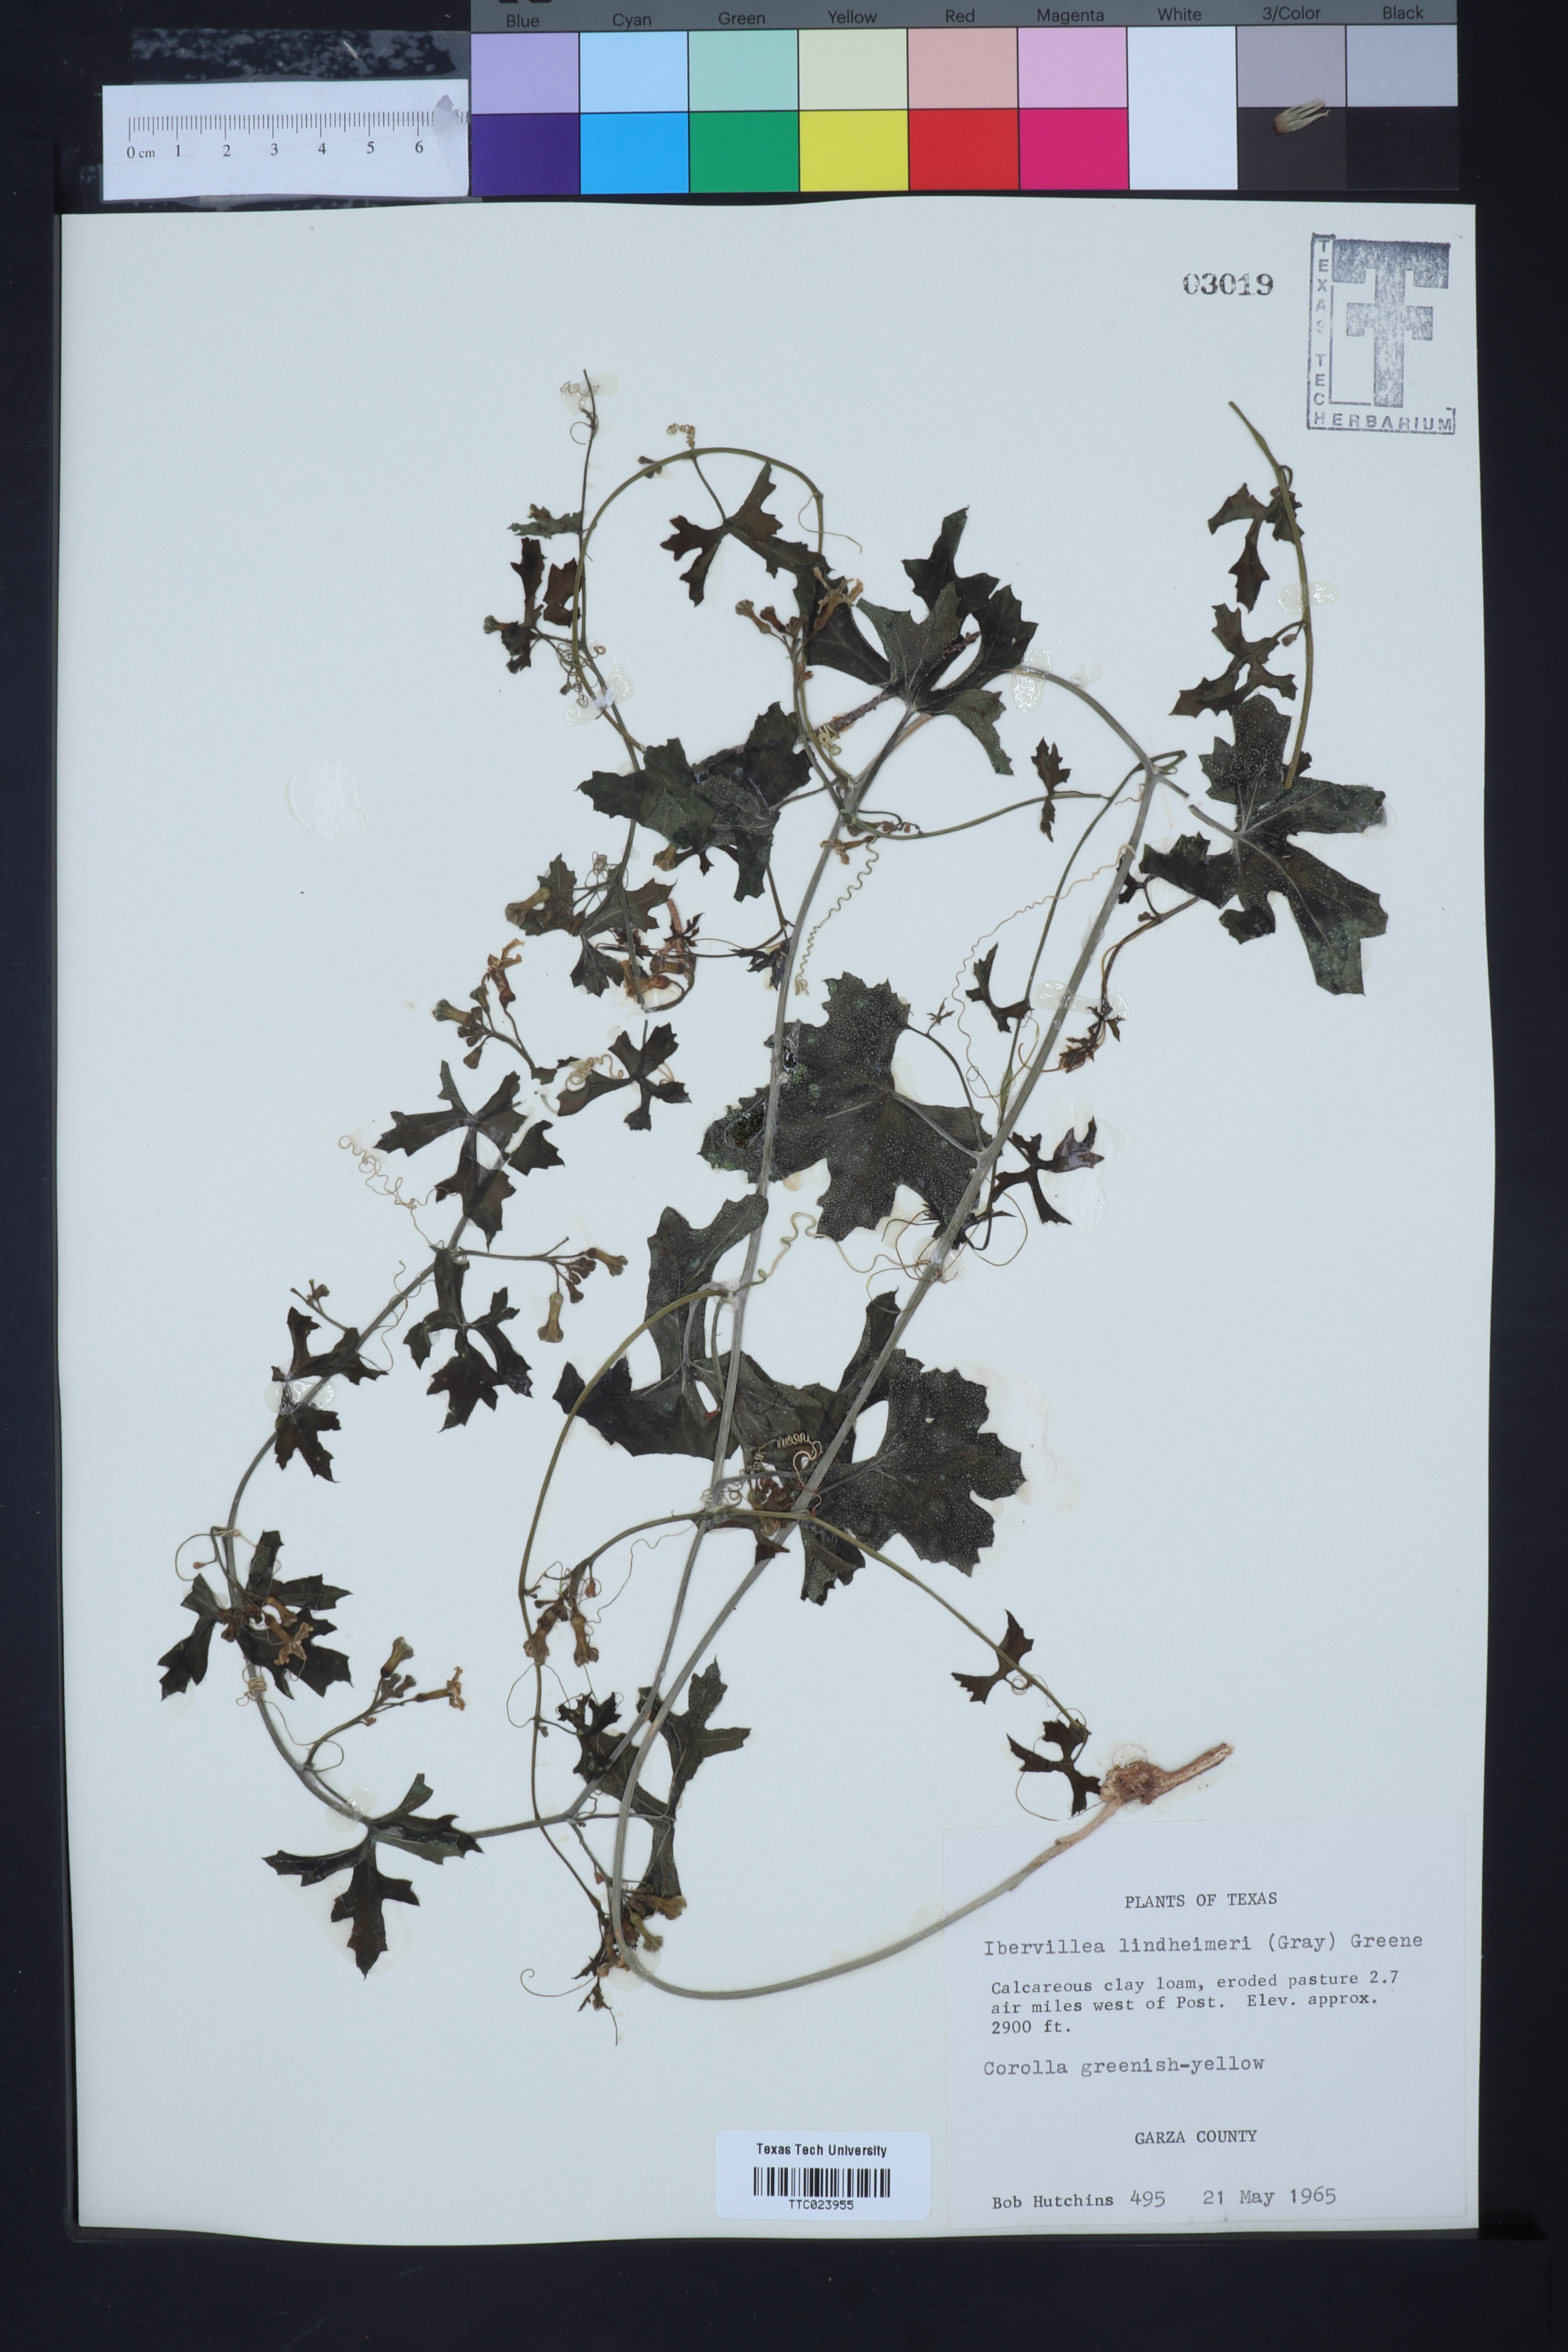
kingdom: Plantae
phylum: Tracheophyta
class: Magnoliopsida
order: Cucurbitales
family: Cucurbitaceae
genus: Ibervillea
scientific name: Ibervillea lindheimeri
